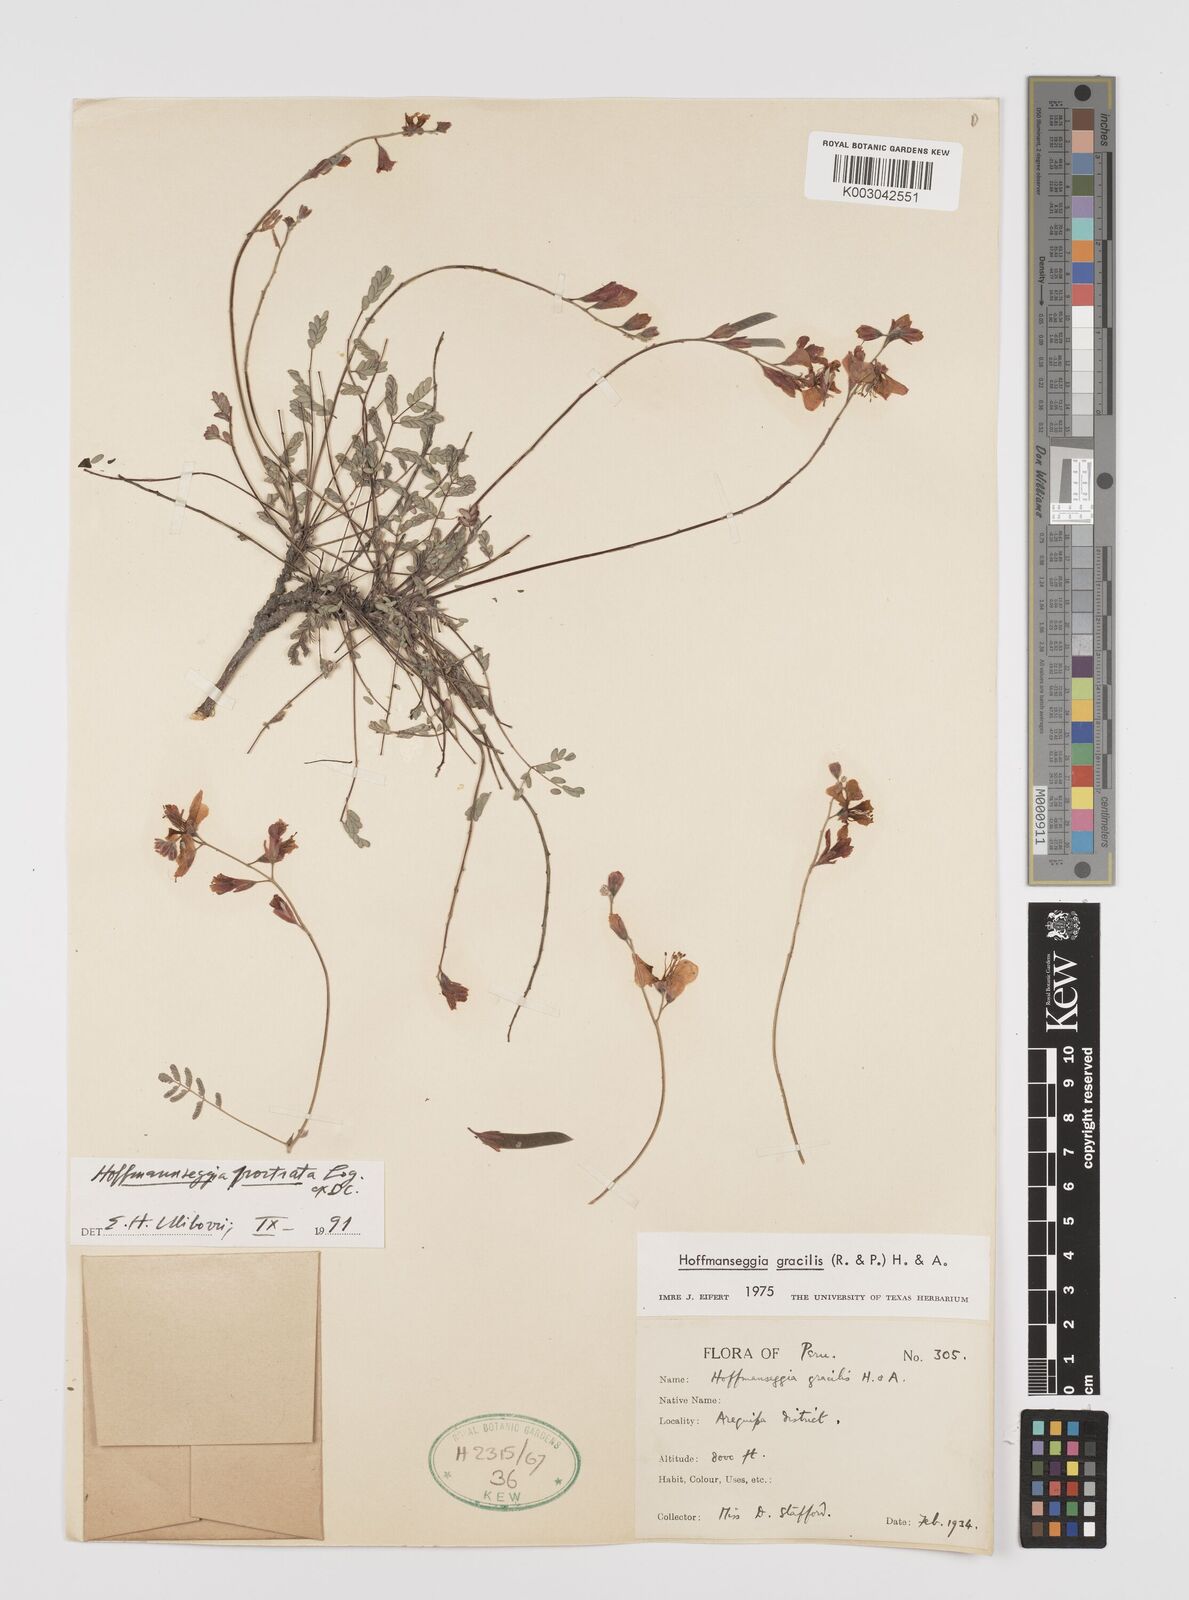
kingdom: Plantae
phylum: Tracheophyta
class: Magnoliopsida
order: Fabales
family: Fabaceae
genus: Hoffmannseggia
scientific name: Hoffmannseggia prostrata
